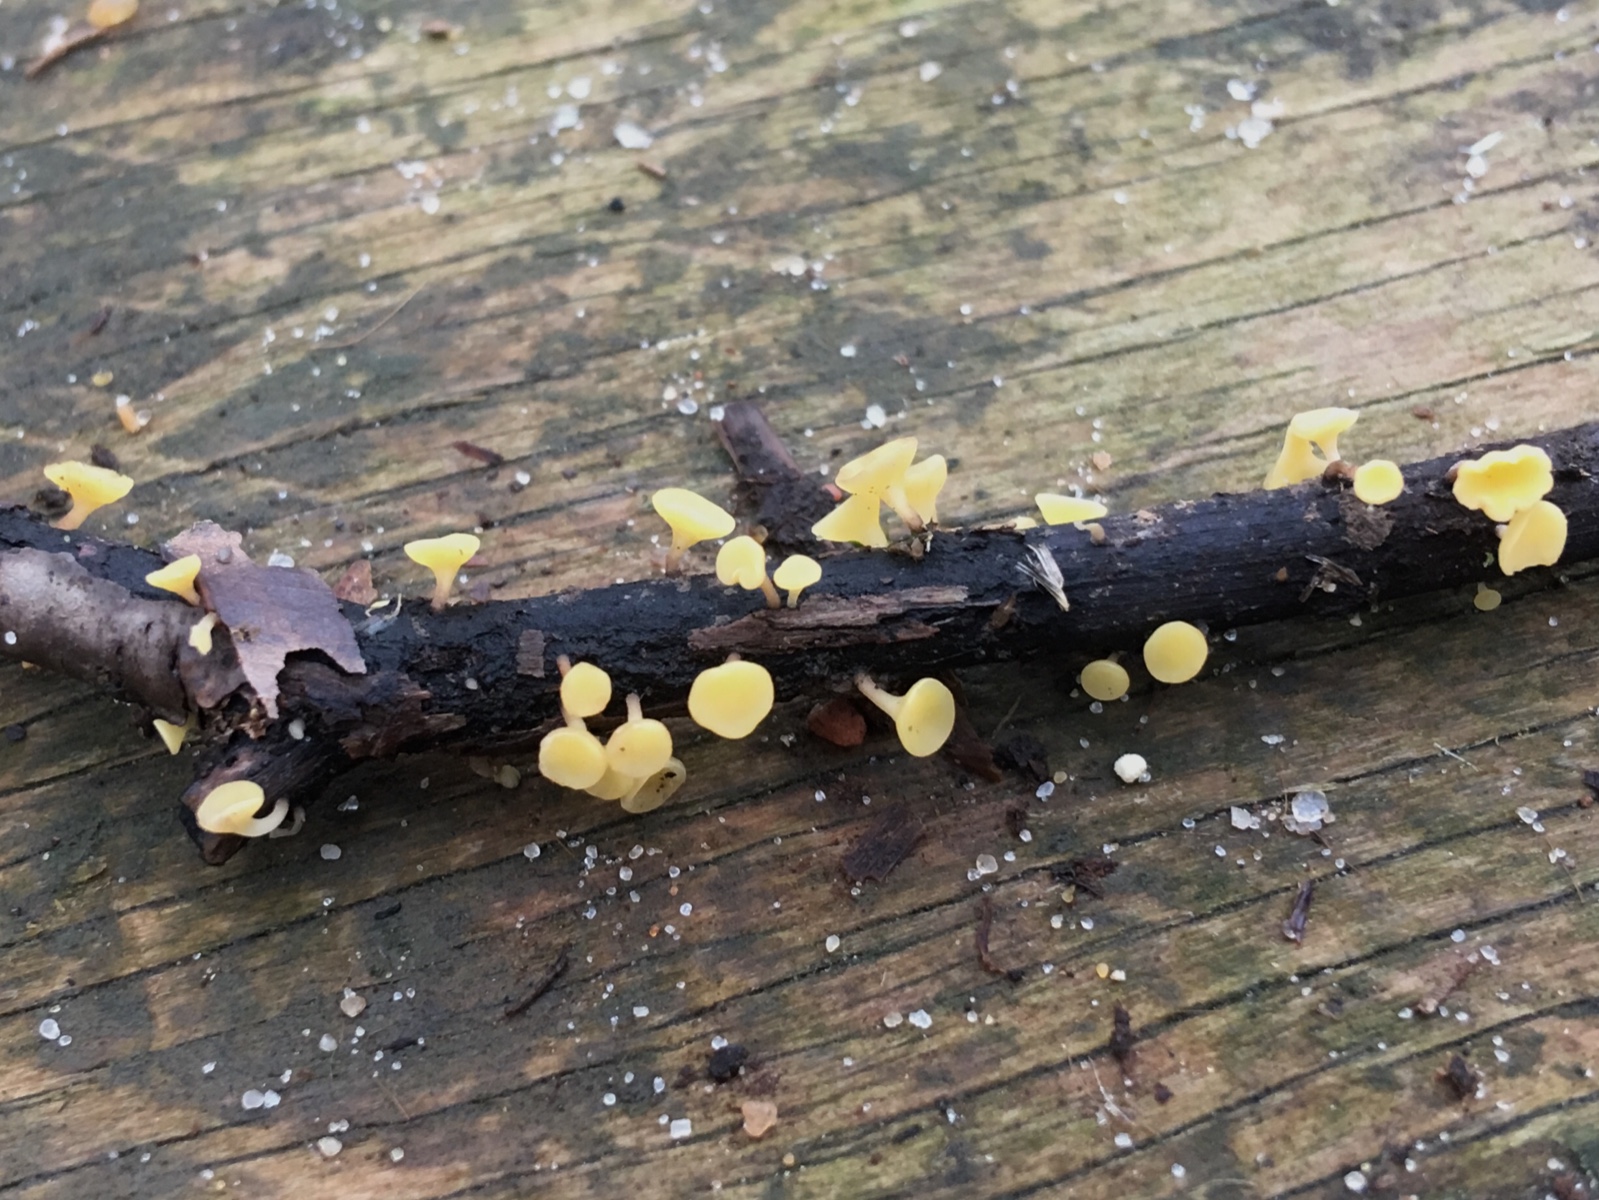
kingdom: Fungi
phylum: Ascomycota
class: Leotiomycetes
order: Helotiales
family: Helotiaceae
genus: Hymenoscyphus
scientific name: Hymenoscyphus
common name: stilkskive
